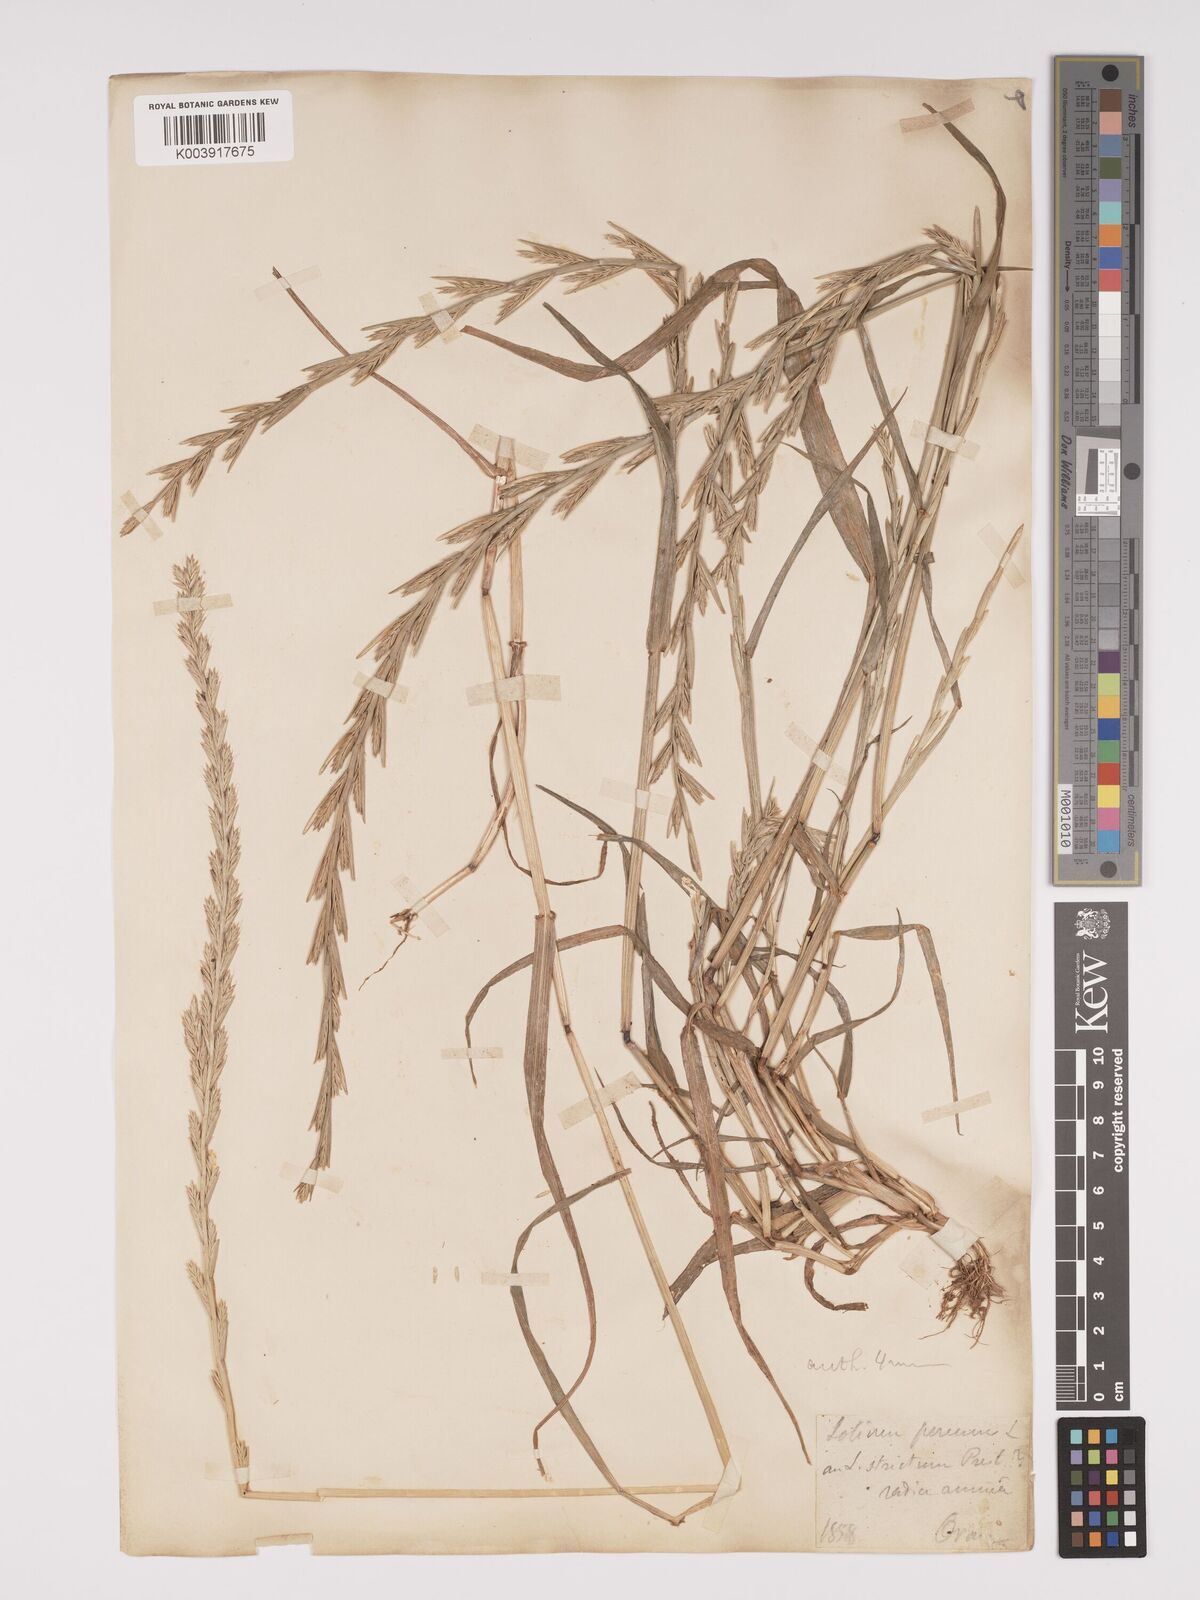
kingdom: Plantae
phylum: Tracheophyta
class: Liliopsida
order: Poales
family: Poaceae
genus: Lolium
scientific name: Lolium rigidum
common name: Wimmera ryegrass
